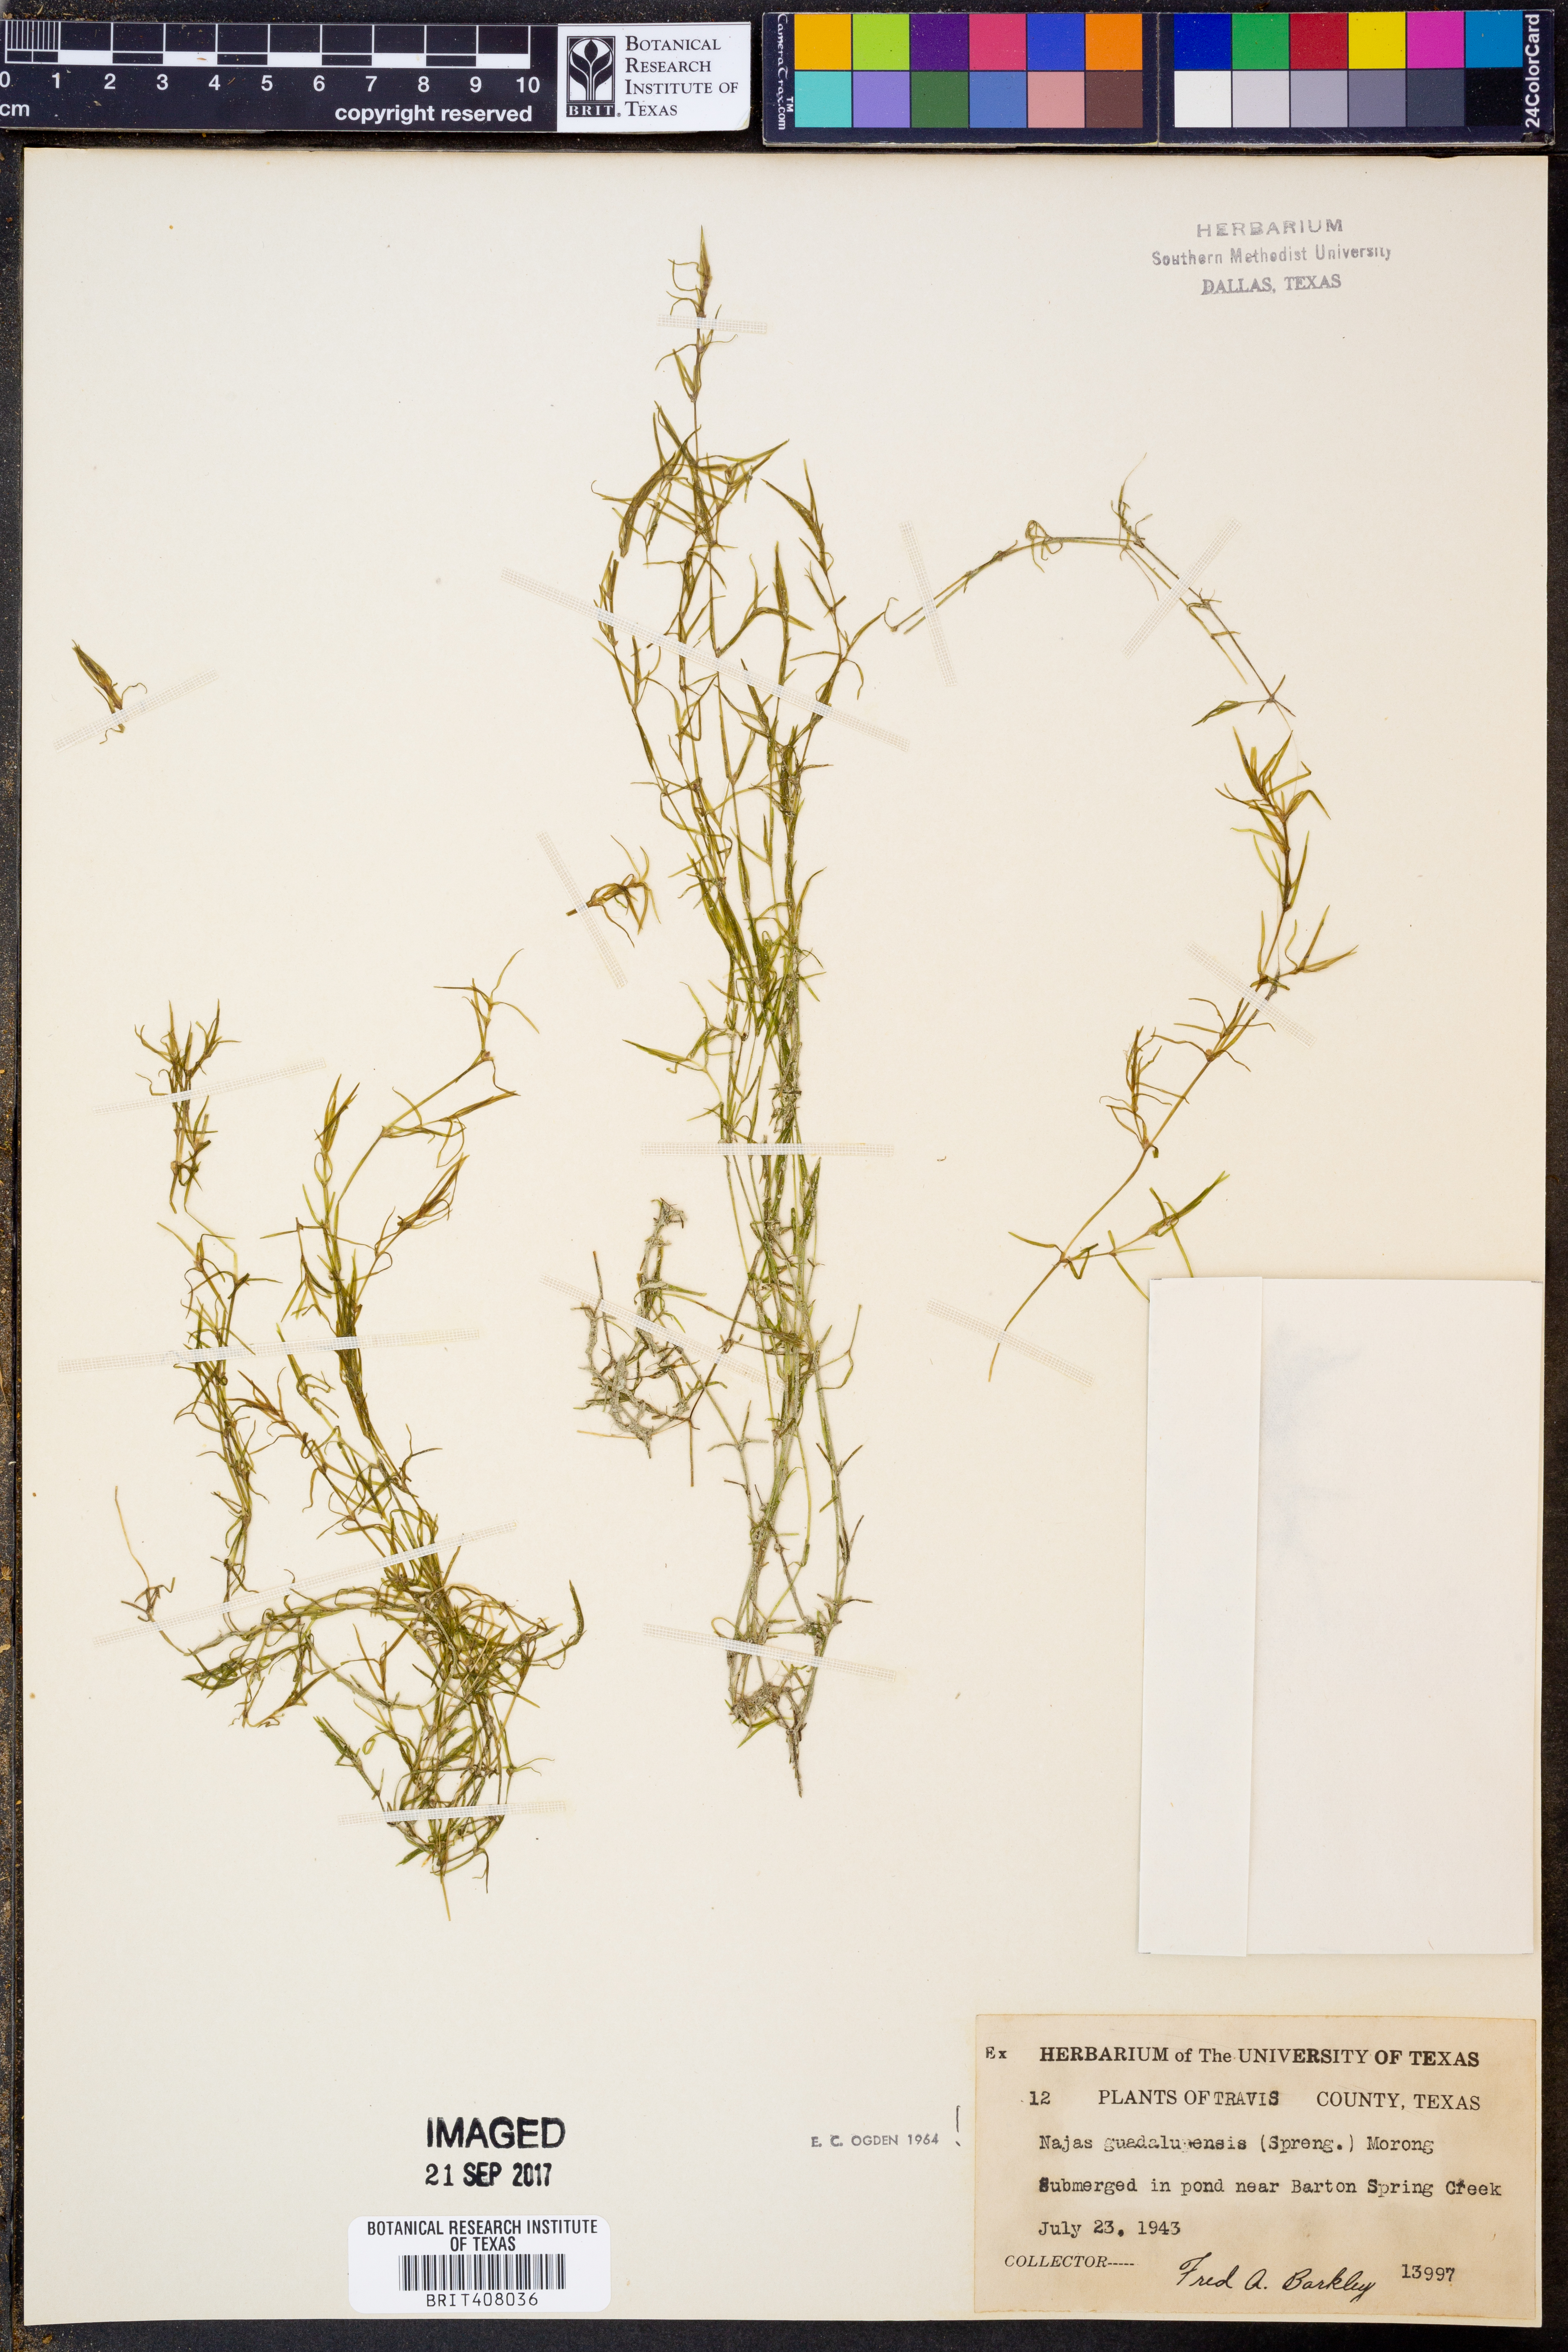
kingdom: Plantae
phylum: Tracheophyta
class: Liliopsida
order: Alismatales
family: Hydrocharitaceae
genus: Najas
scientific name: Najas guadalupensis
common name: Southern naiad
